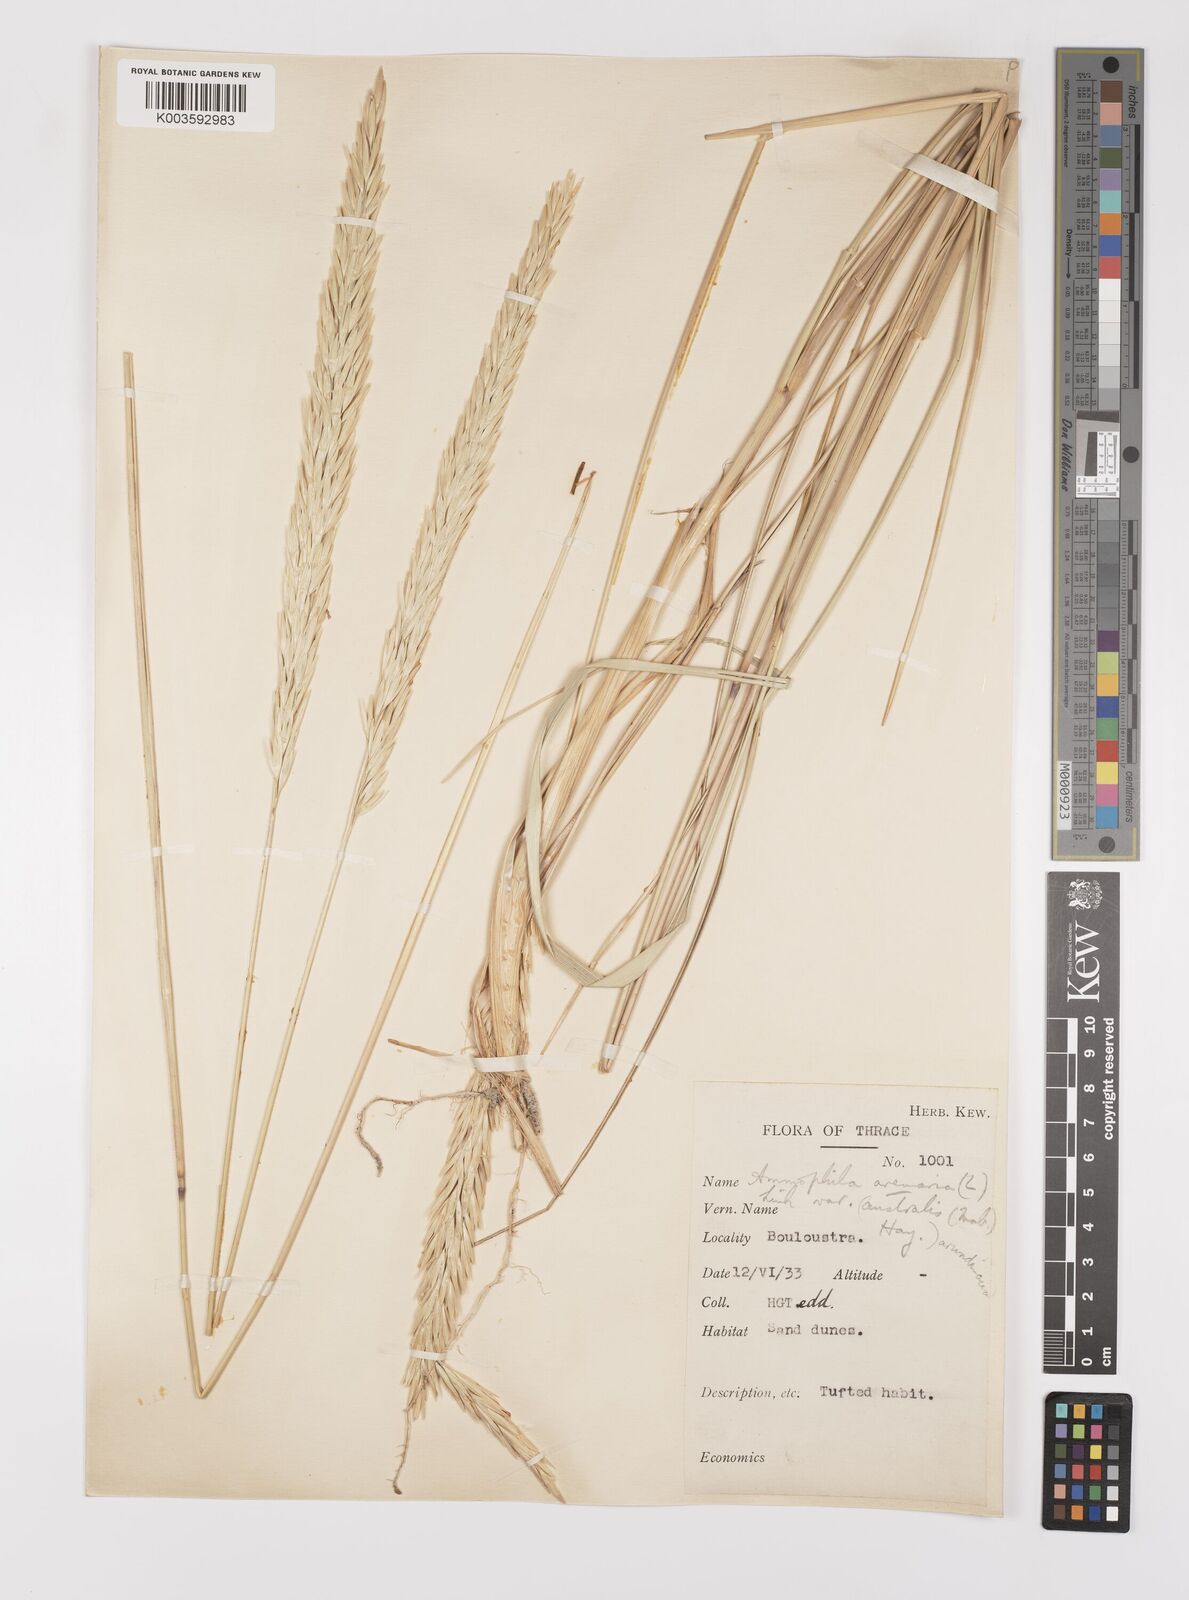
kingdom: Plantae
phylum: Tracheophyta
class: Liliopsida
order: Poales
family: Poaceae
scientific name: Poaceae
